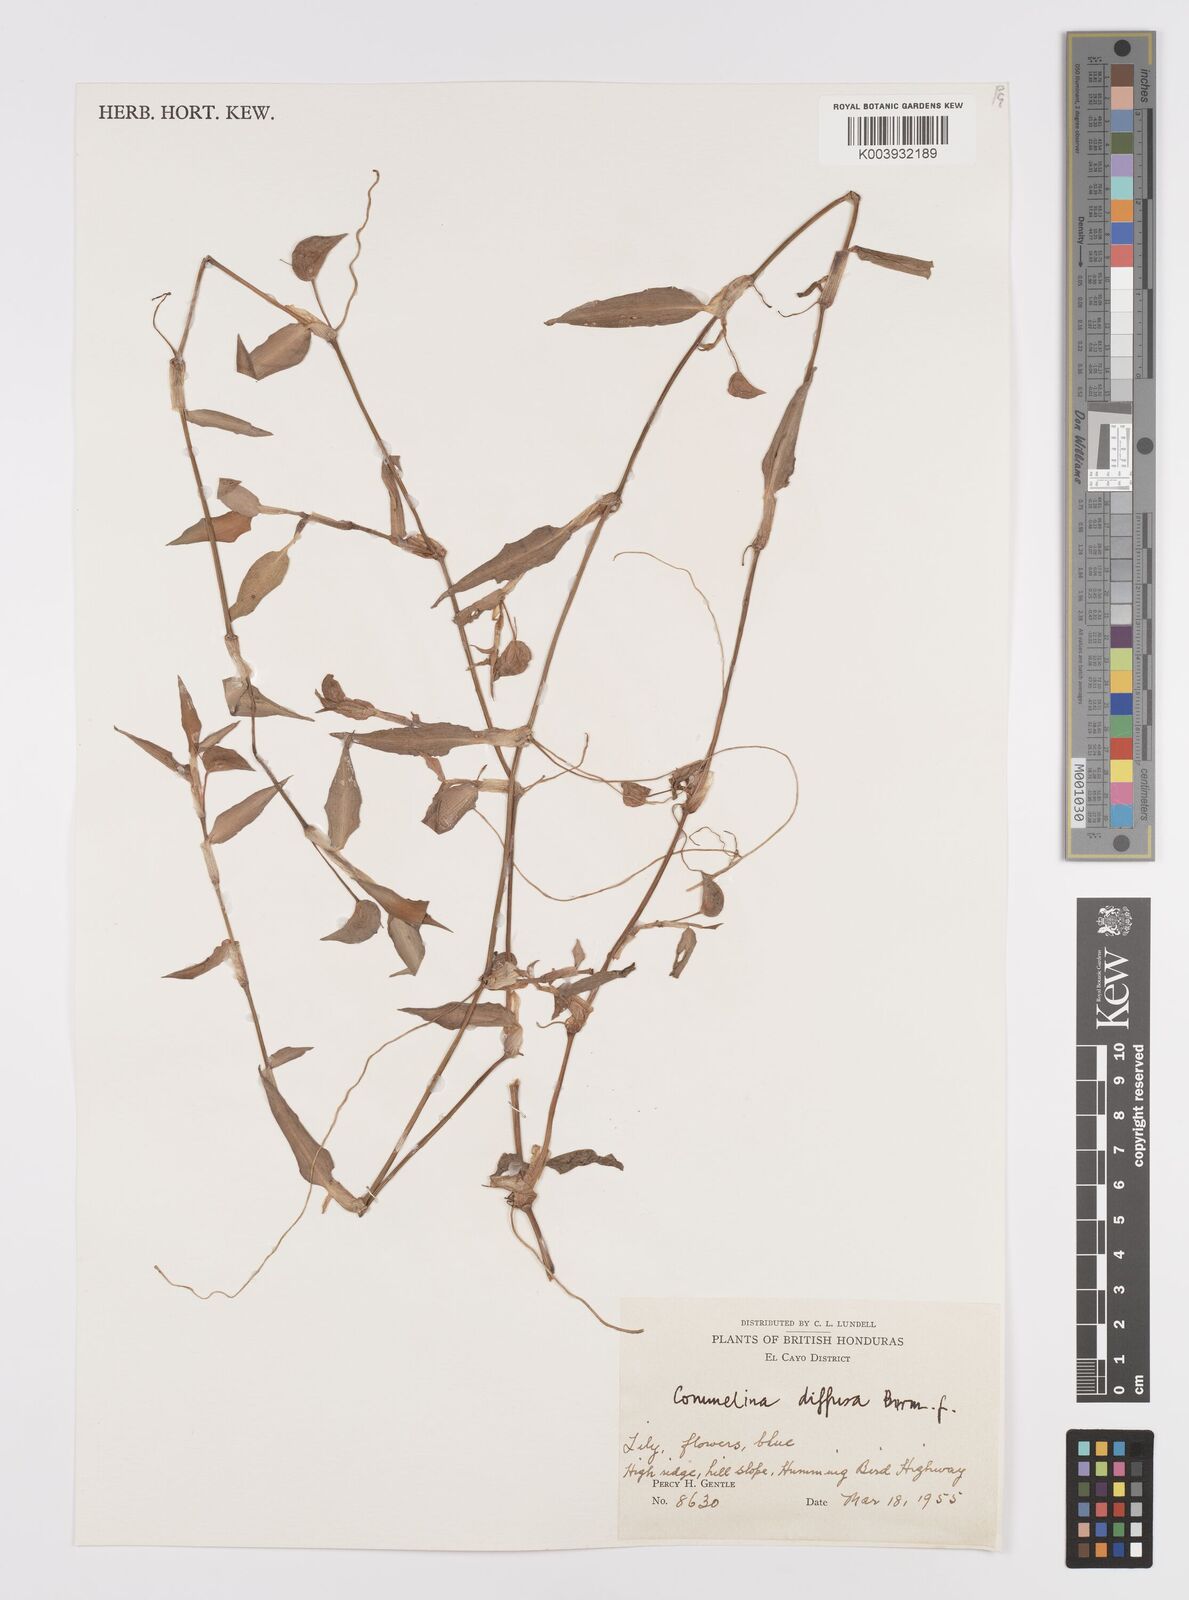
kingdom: Plantae
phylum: Tracheophyta
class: Liliopsida
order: Commelinales
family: Commelinaceae
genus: Commelina
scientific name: Commelina diffusa
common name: Climbing dayflower
